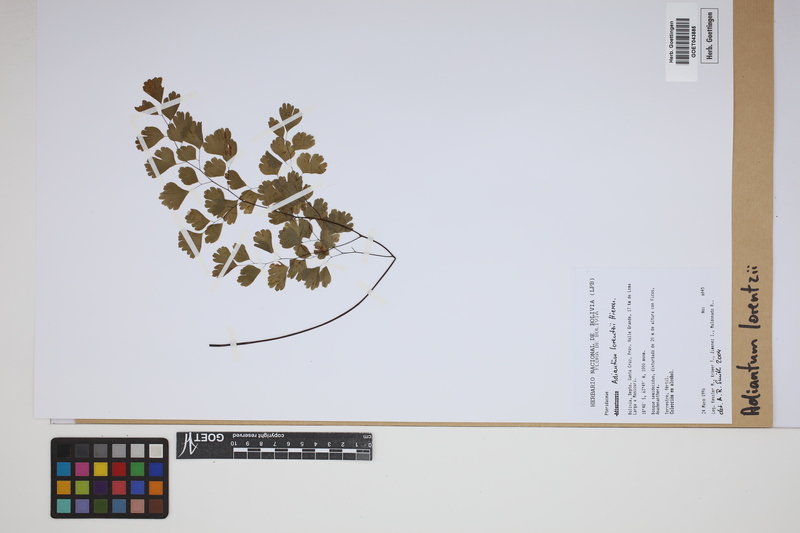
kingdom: Plantae
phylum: Tracheophyta
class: Polypodiopsida
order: Polypodiales
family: Pteridaceae
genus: Adiantum
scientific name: Adiantum lorentzii
